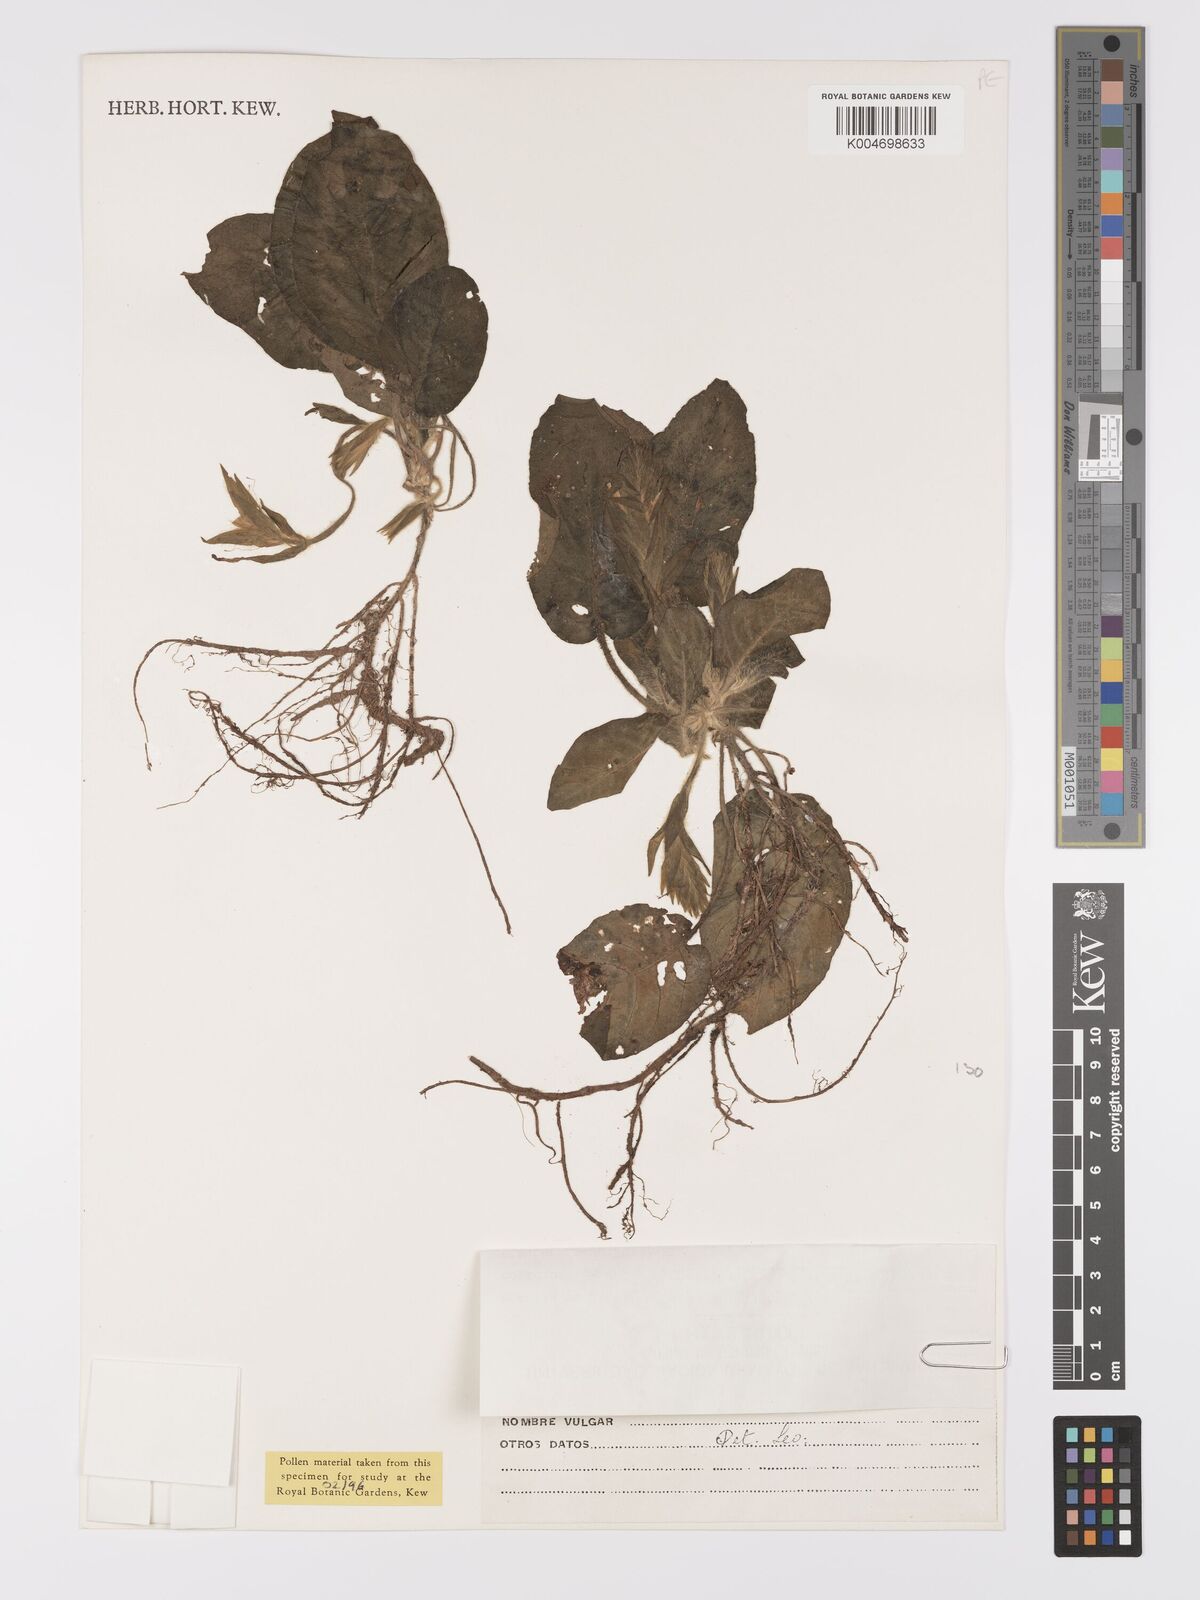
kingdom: Plantae
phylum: Tracheophyta
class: Magnoliopsida
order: Lamiales
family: Acanthaceae
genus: Aphelandra
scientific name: Aphelandra acrensis
